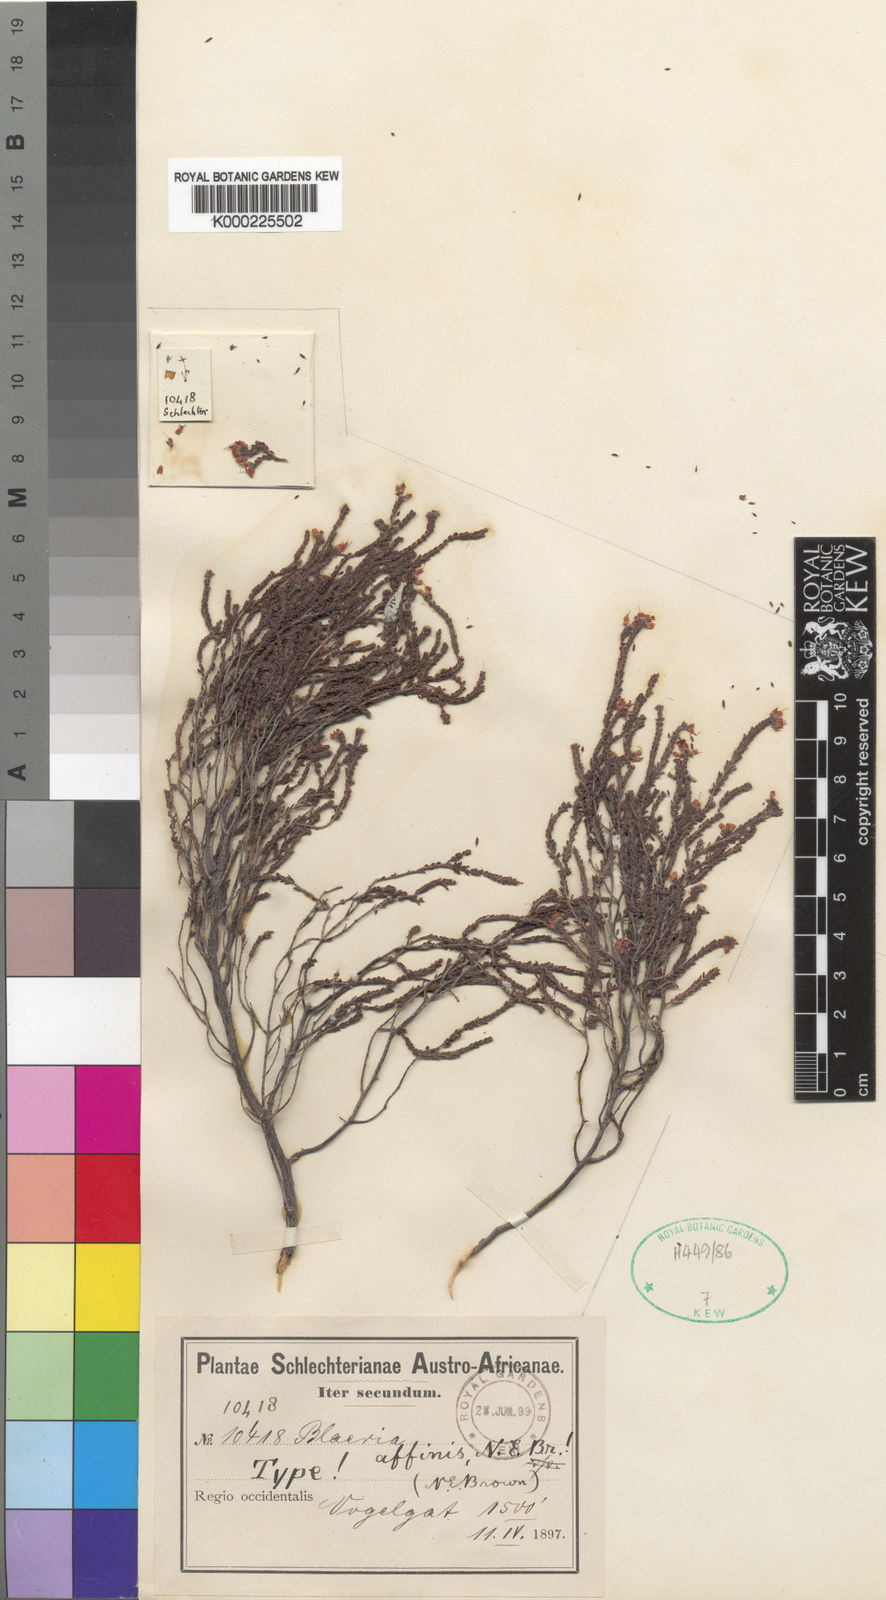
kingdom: Plantae
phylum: Tracheophyta
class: Magnoliopsida
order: Ericales
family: Ericaceae
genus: Erica
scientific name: Erica ericoides
